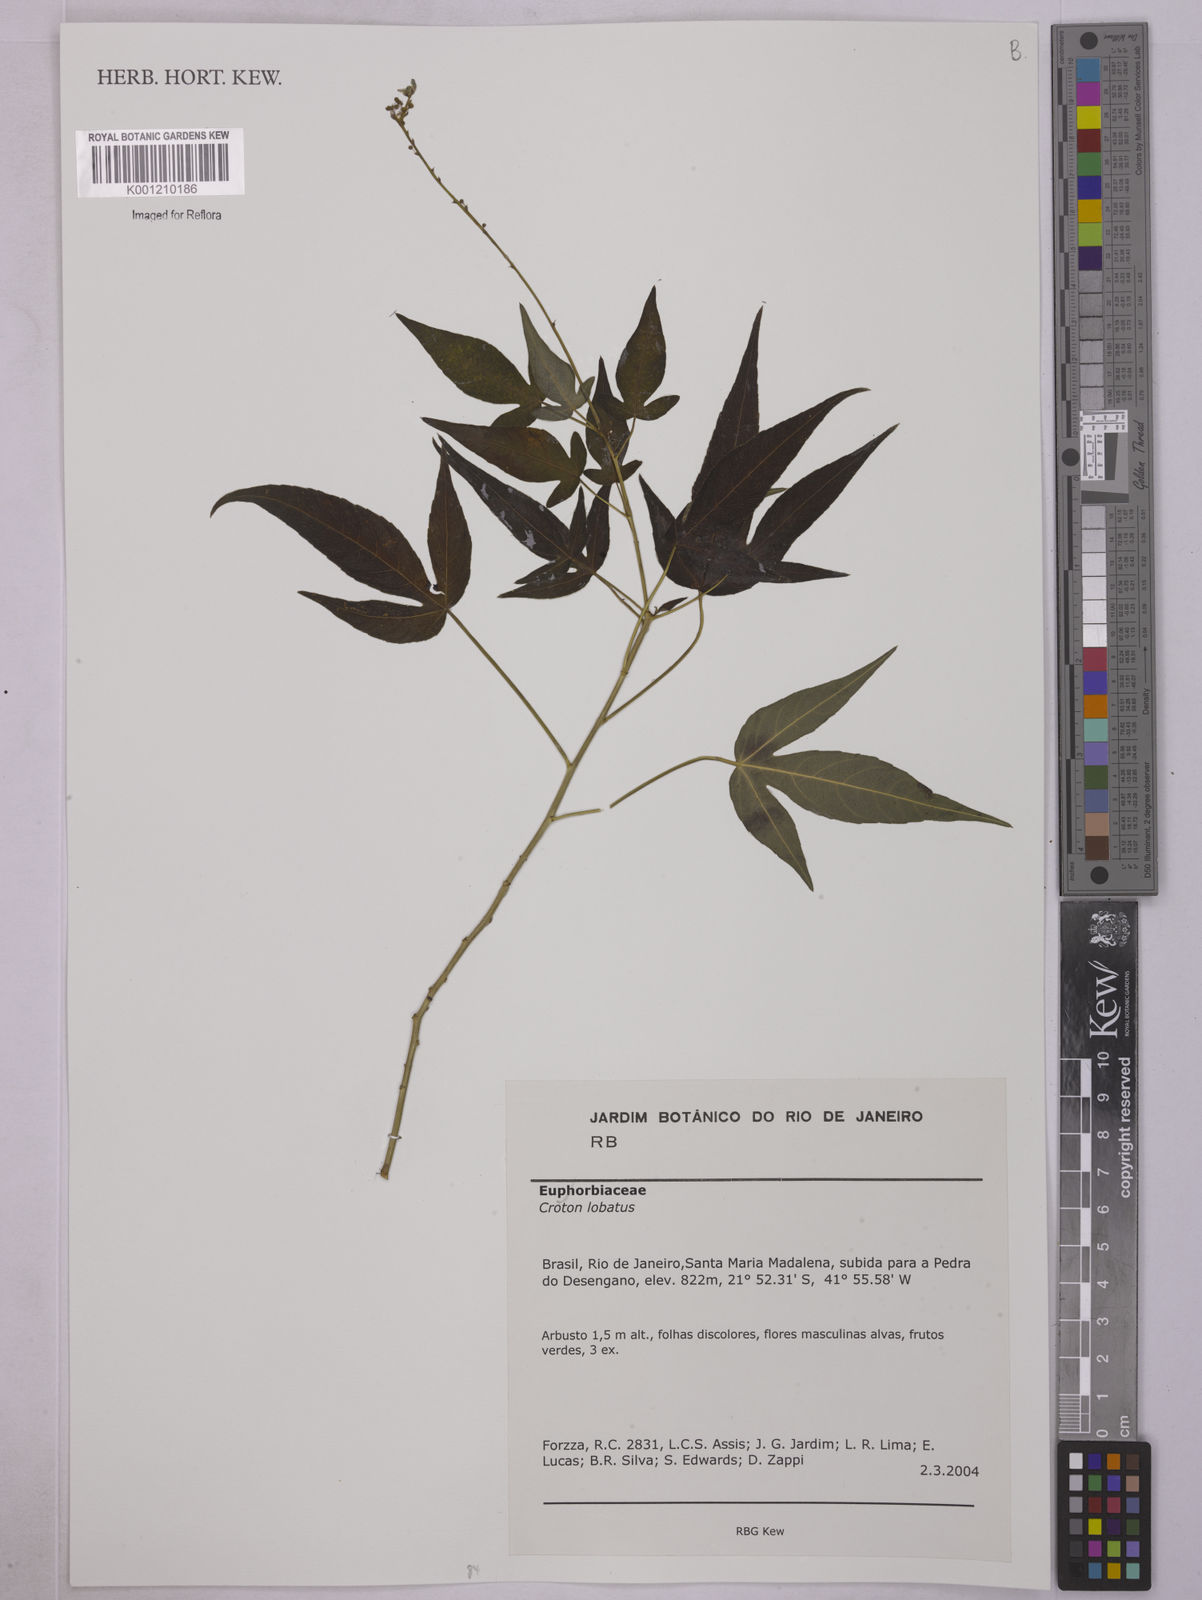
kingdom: Plantae
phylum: Tracheophyta
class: Magnoliopsida
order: Malpighiales
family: Euphorbiaceae
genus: Astraea
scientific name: Astraea lobata
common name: Lobed croton
